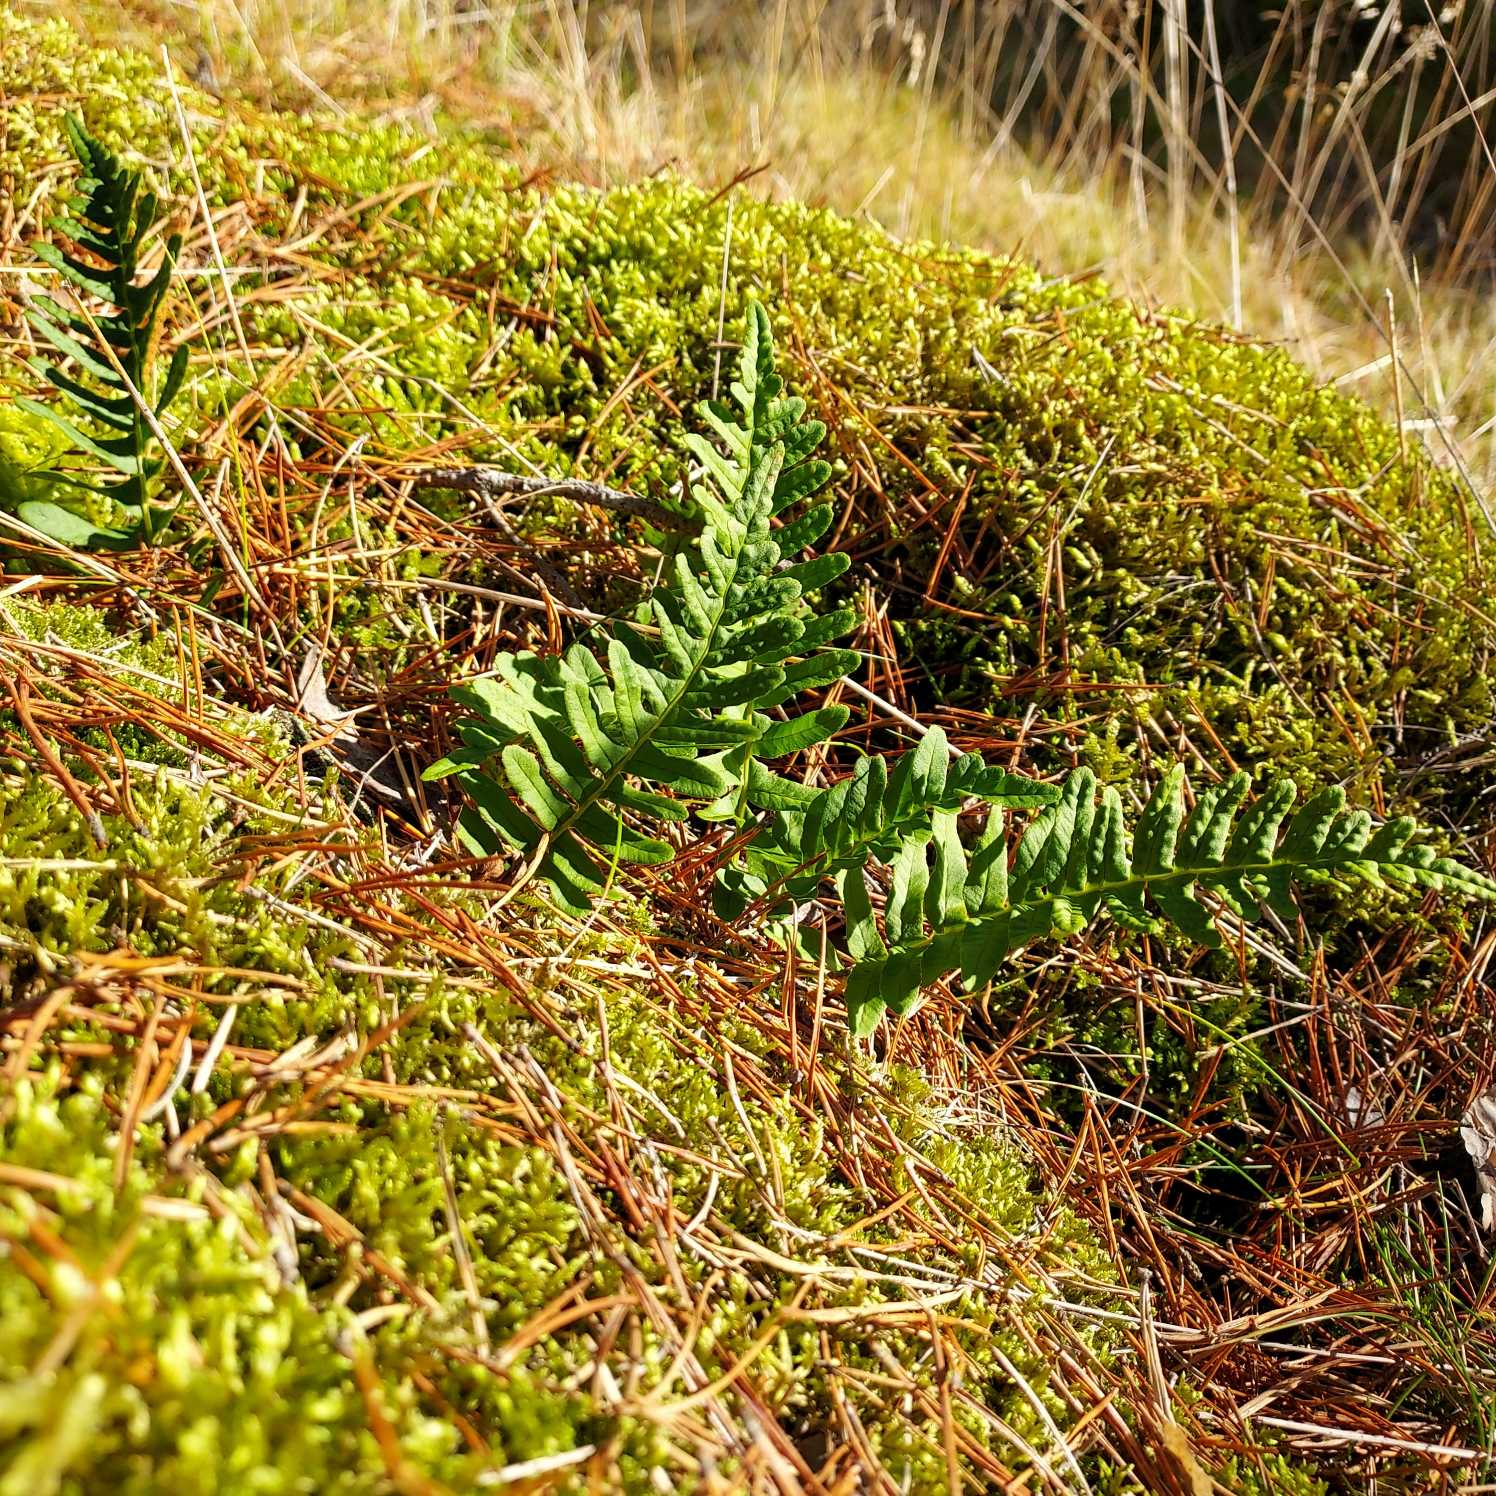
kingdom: Plantae
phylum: Tracheophyta
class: Polypodiopsida
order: Polypodiales
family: Polypodiaceae
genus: Polypodium
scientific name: Polypodium vulgare
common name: Almindelig engelsød
